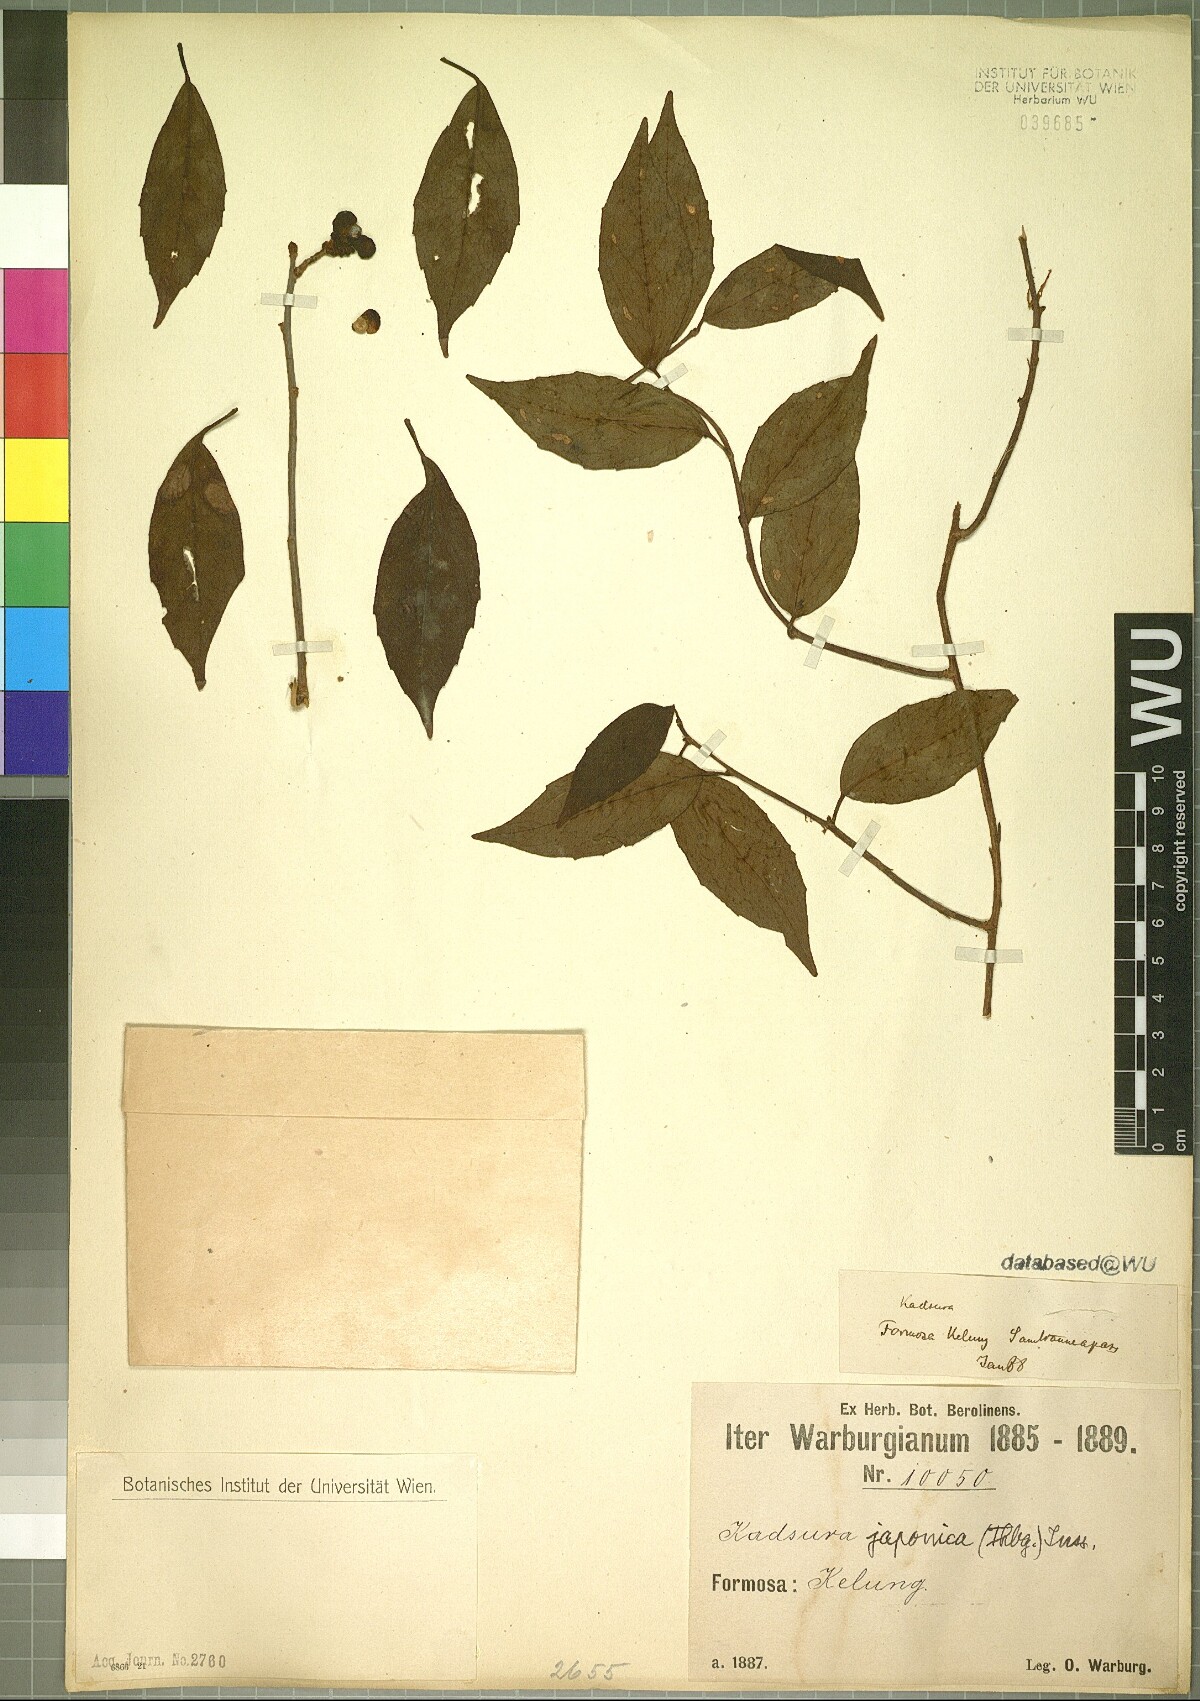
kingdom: Plantae
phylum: Tracheophyta
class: Magnoliopsida
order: Austrobaileyales
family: Schisandraceae
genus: Kadsura
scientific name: Kadsura japonica
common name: Japanese kadsura
